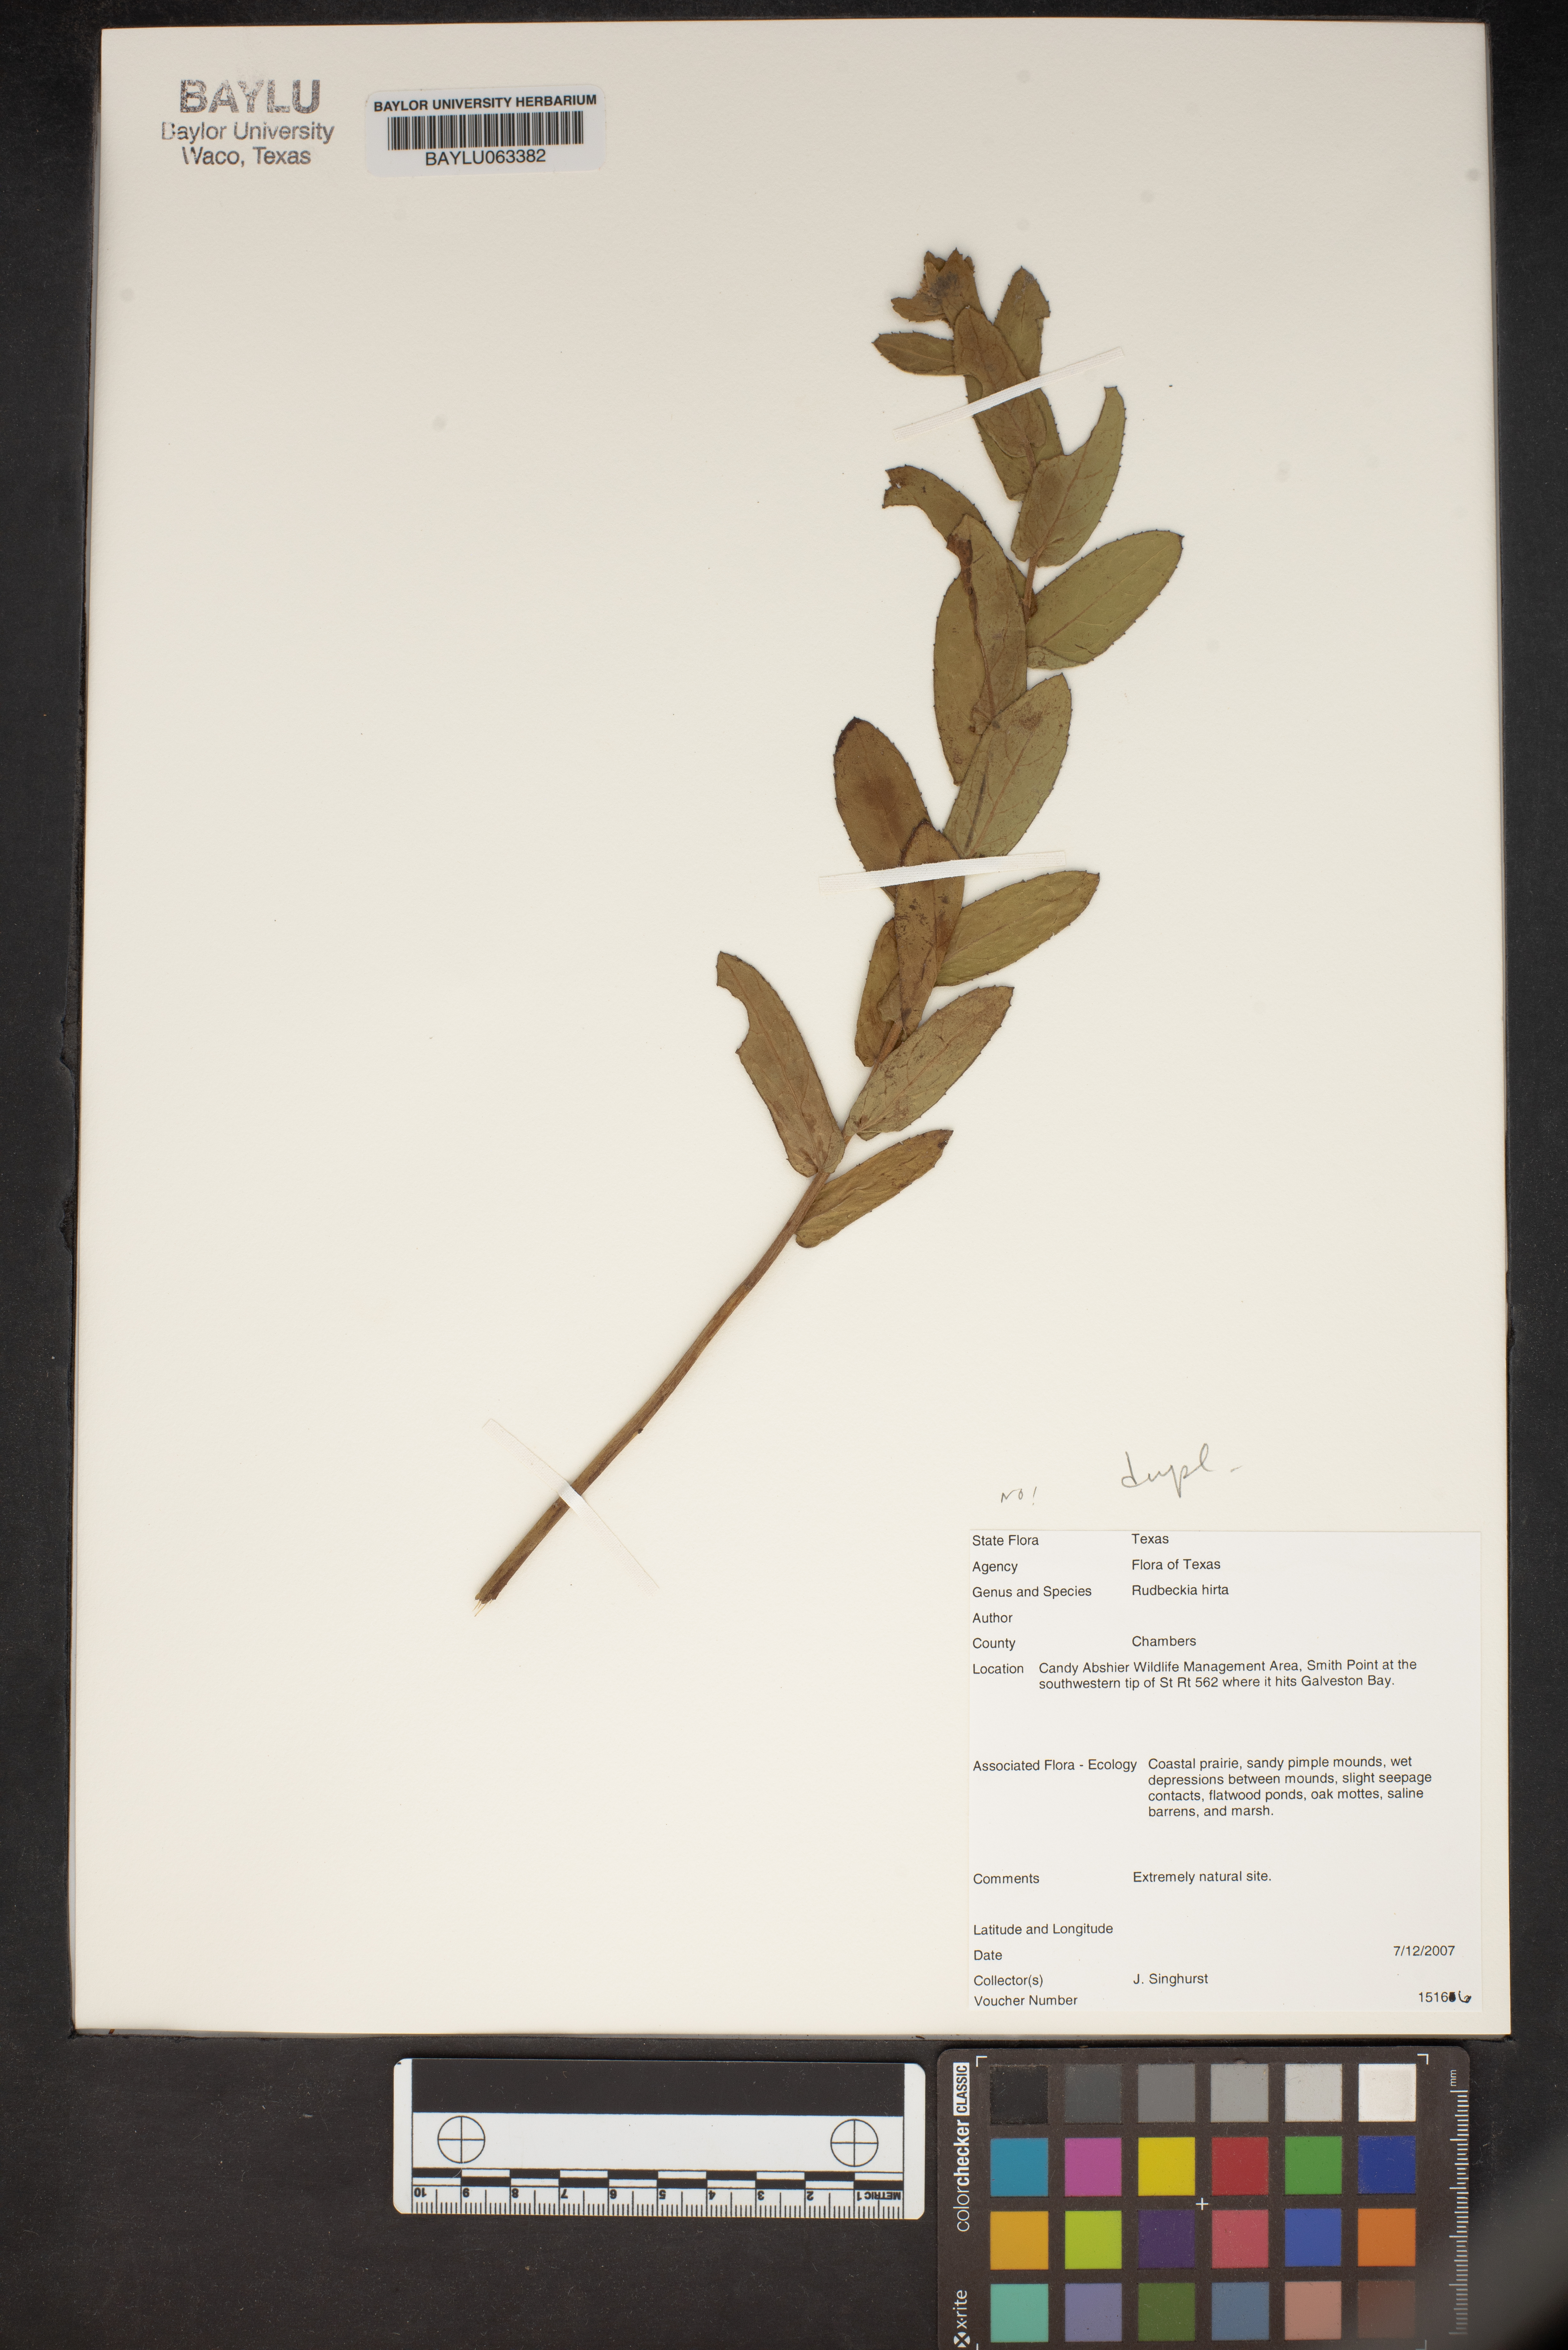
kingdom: Plantae
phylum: Tracheophyta
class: Magnoliopsida
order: Asterales
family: Asteraceae
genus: Rudbeckia
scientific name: Rudbeckia hirta
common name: Black-eyed-susan
